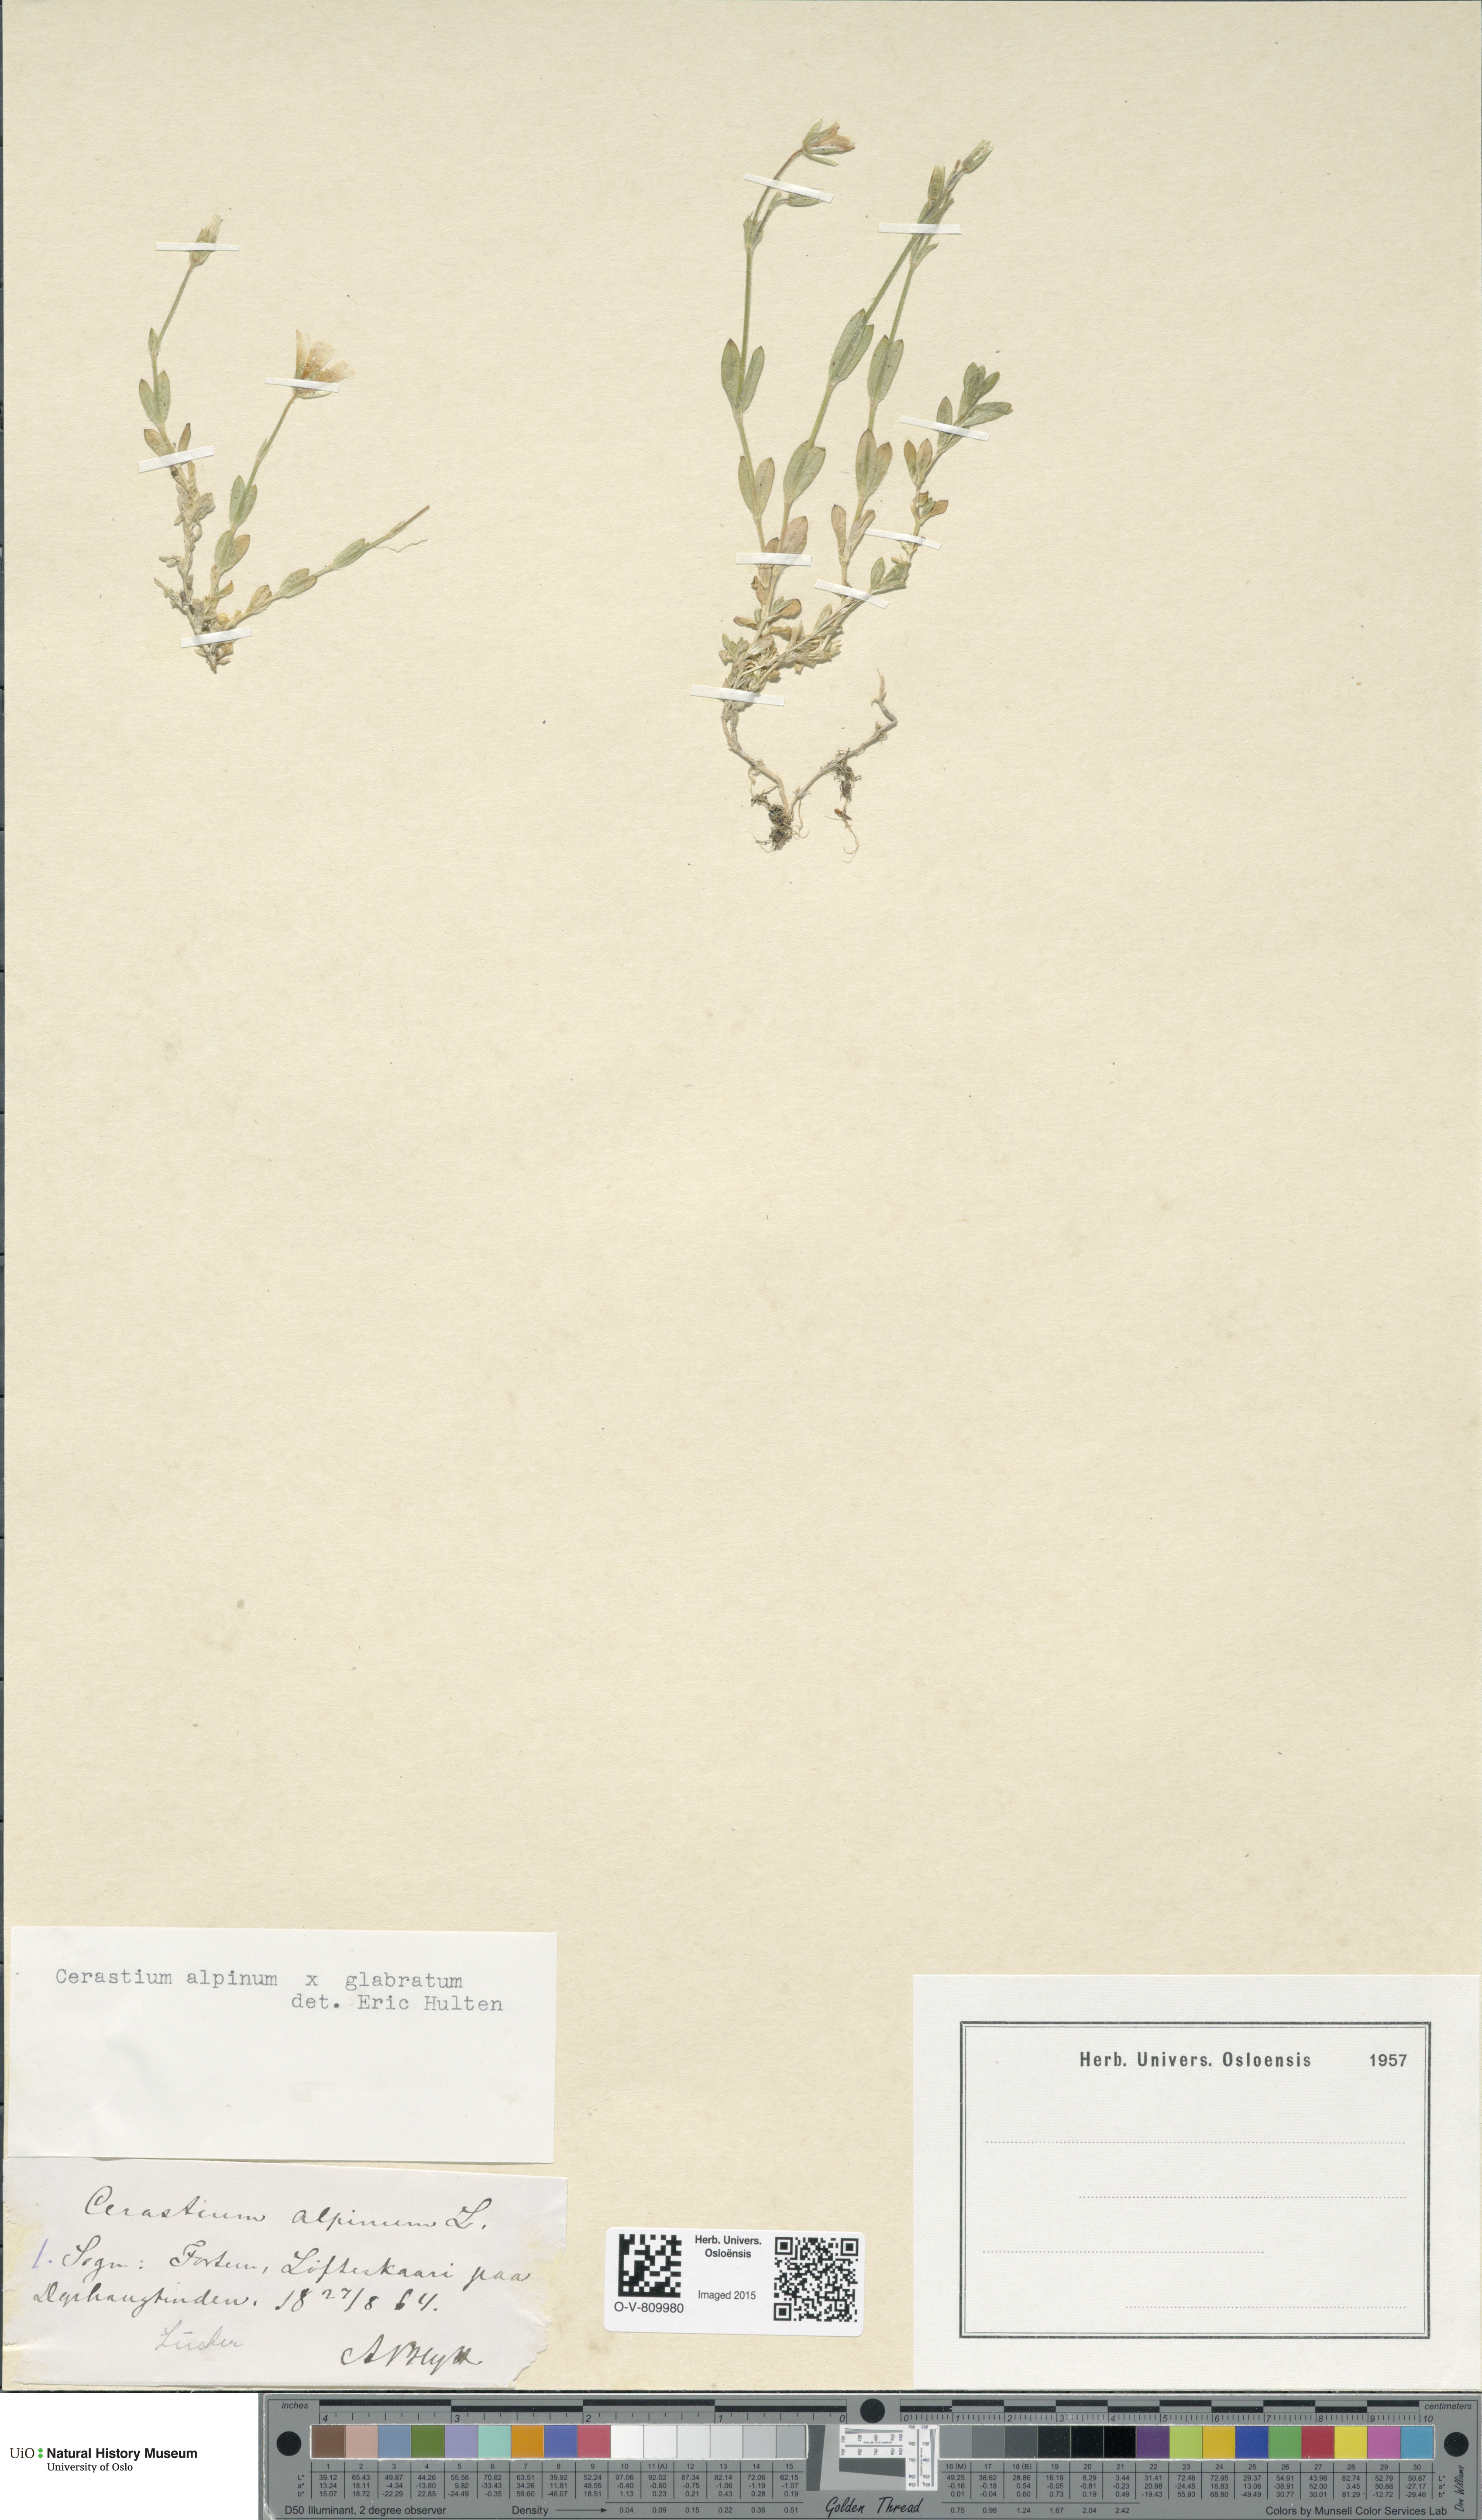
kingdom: Plantae
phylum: Tracheophyta
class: Magnoliopsida
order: Caryophyllales
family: Caryophyllaceae
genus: Cerastium
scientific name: Cerastium
